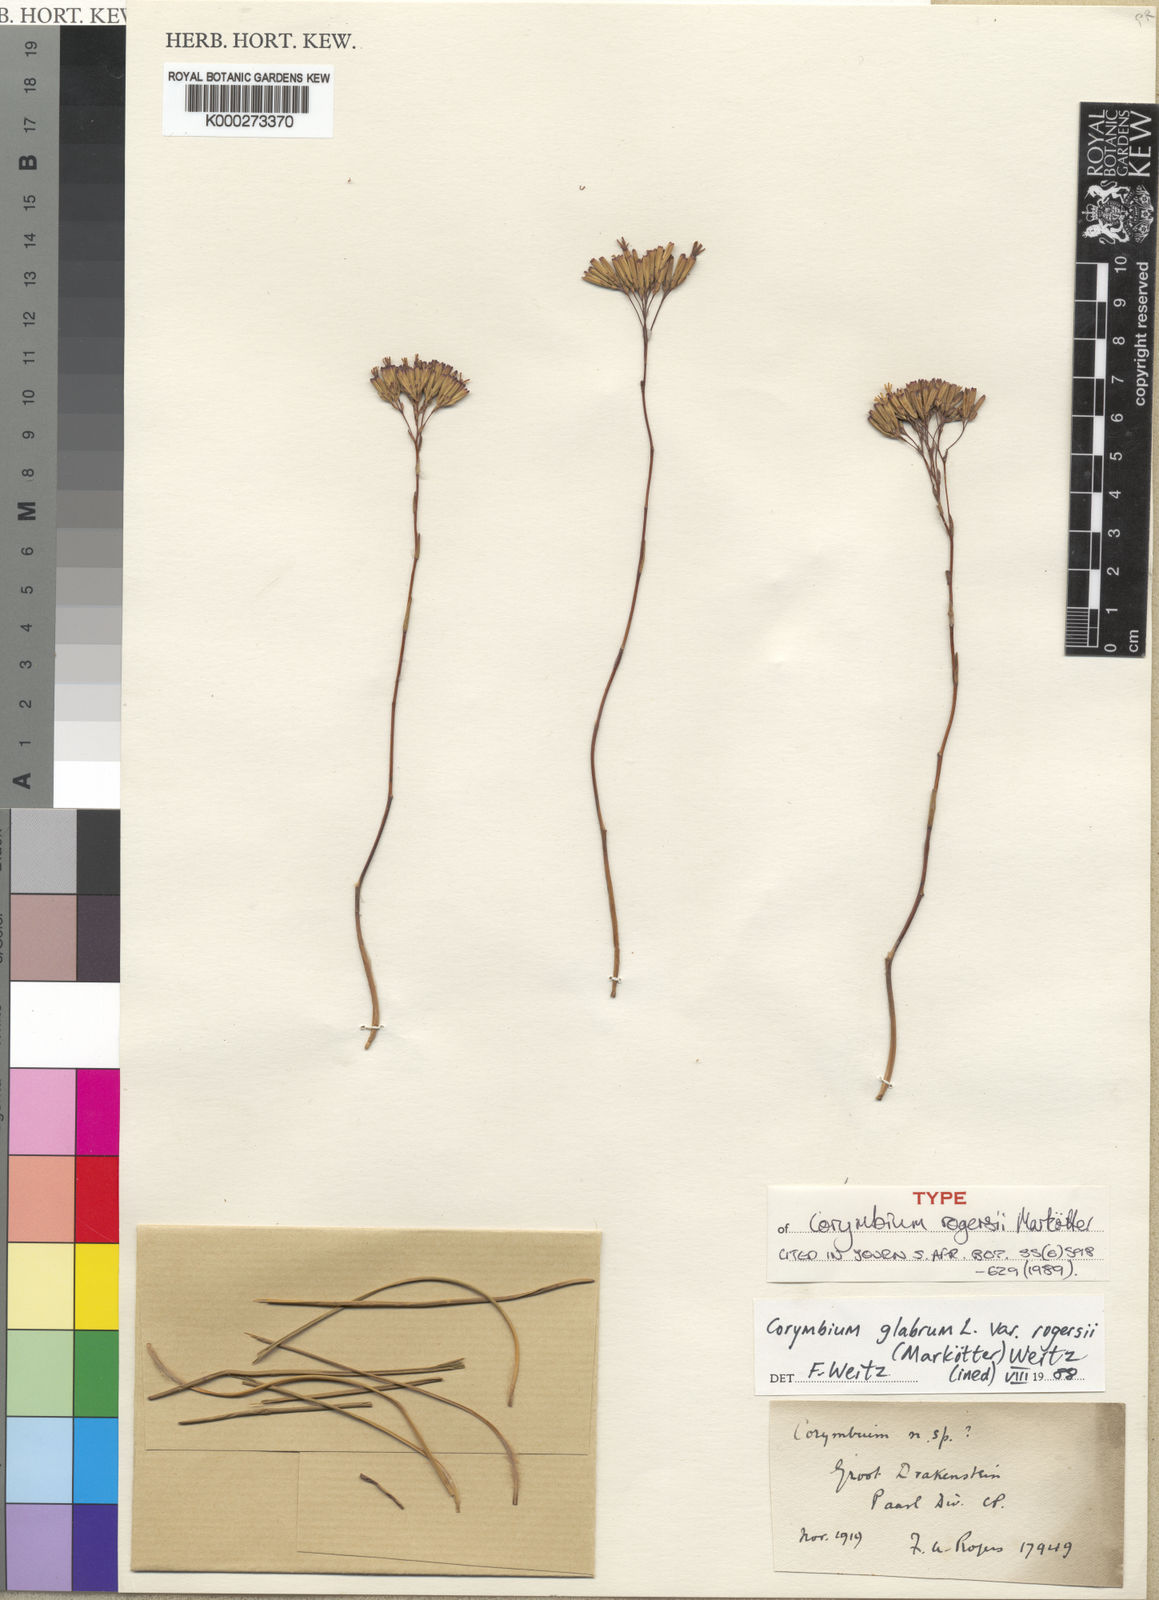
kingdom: Plantae
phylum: Tracheophyta
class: Magnoliopsida
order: Asterales
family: Asteraceae
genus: Corymbium
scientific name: Corymbium glabrum
